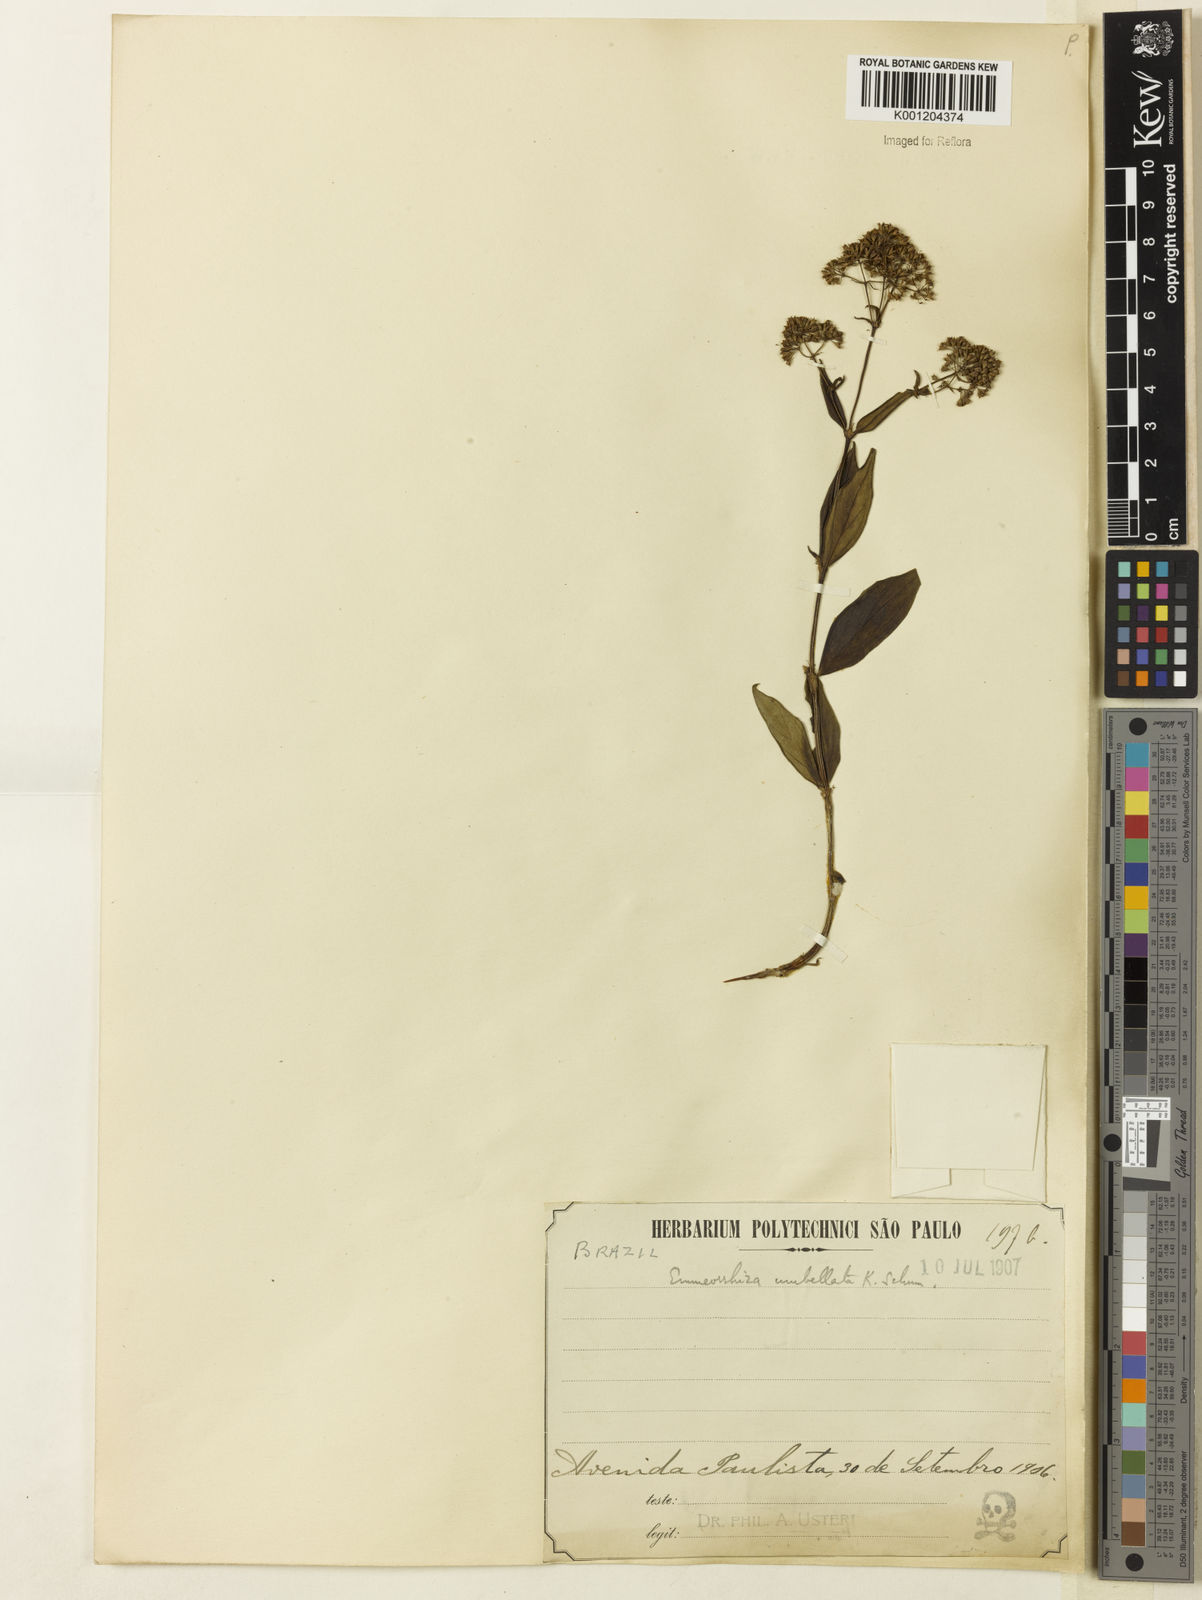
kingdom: Plantae
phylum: Tracheophyta
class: Magnoliopsida
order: Gentianales
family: Rubiaceae
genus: Emmeorhiza
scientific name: Emmeorhiza umbellata
